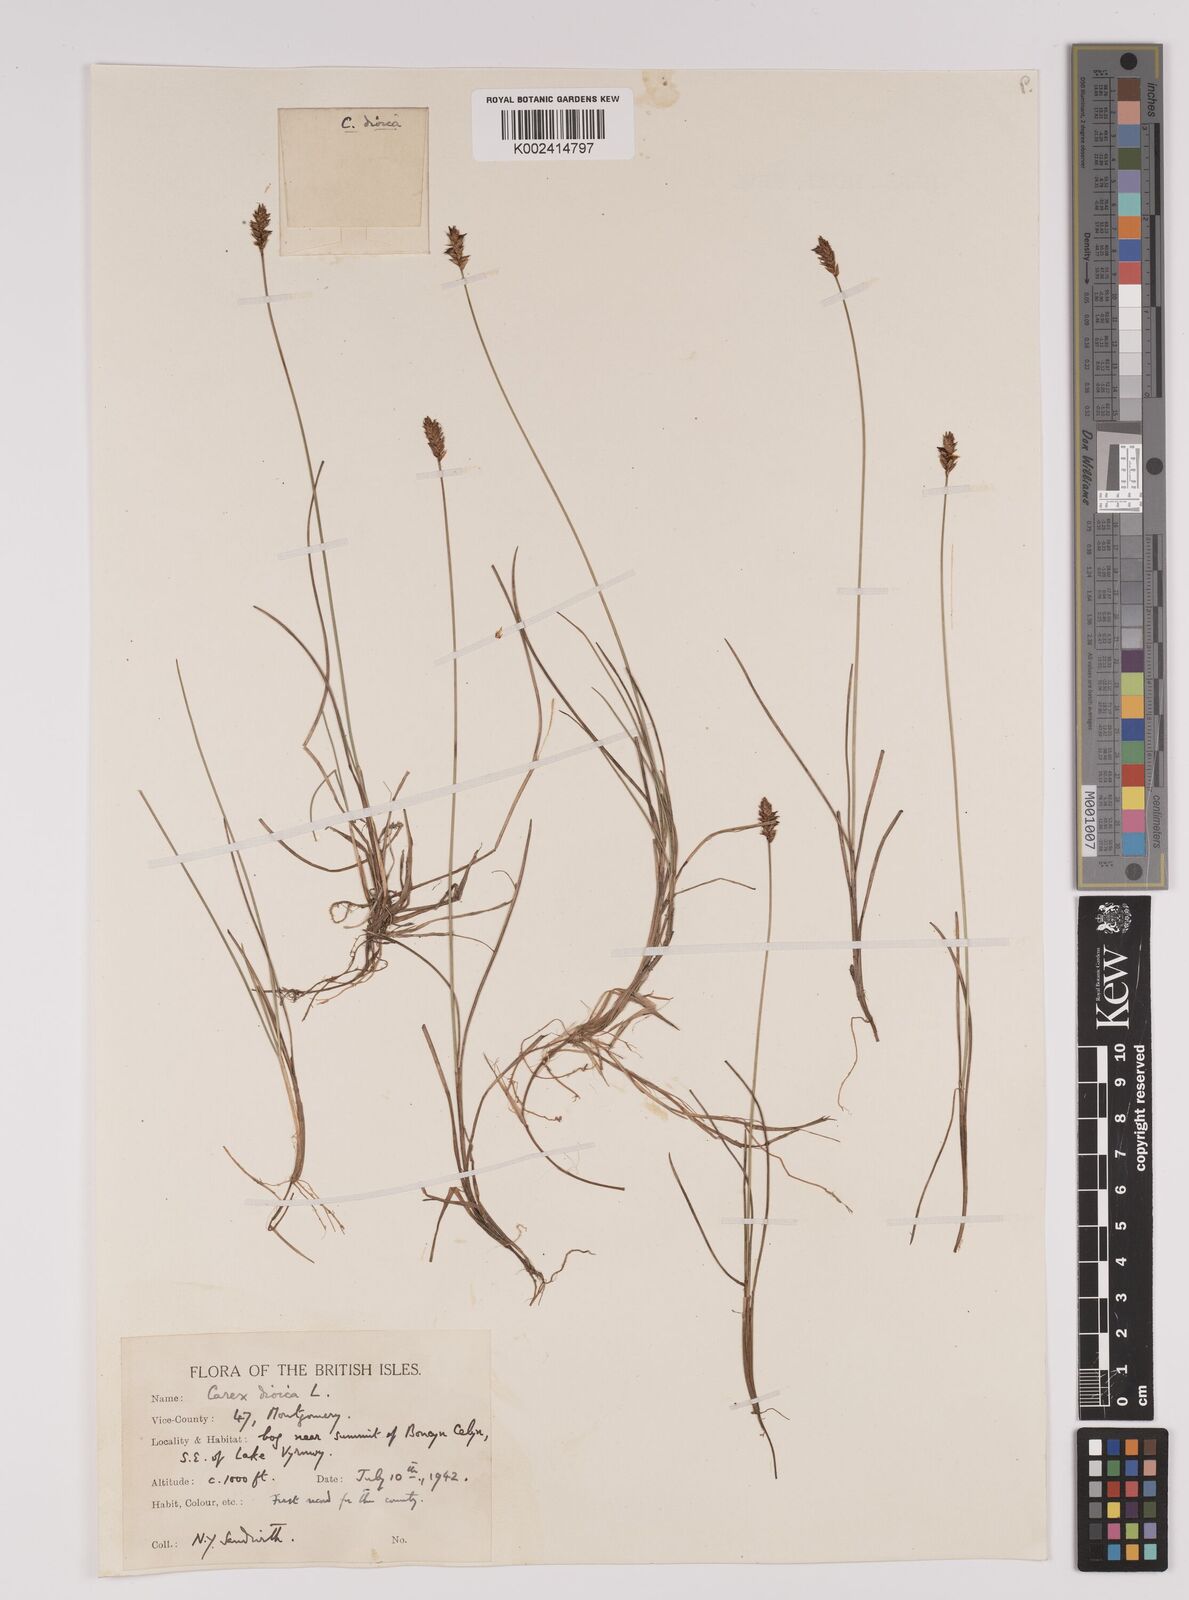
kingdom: Plantae
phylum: Tracheophyta
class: Liliopsida
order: Poales
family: Cyperaceae
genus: Carex
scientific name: Carex dioica
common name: Dioecious sedge
